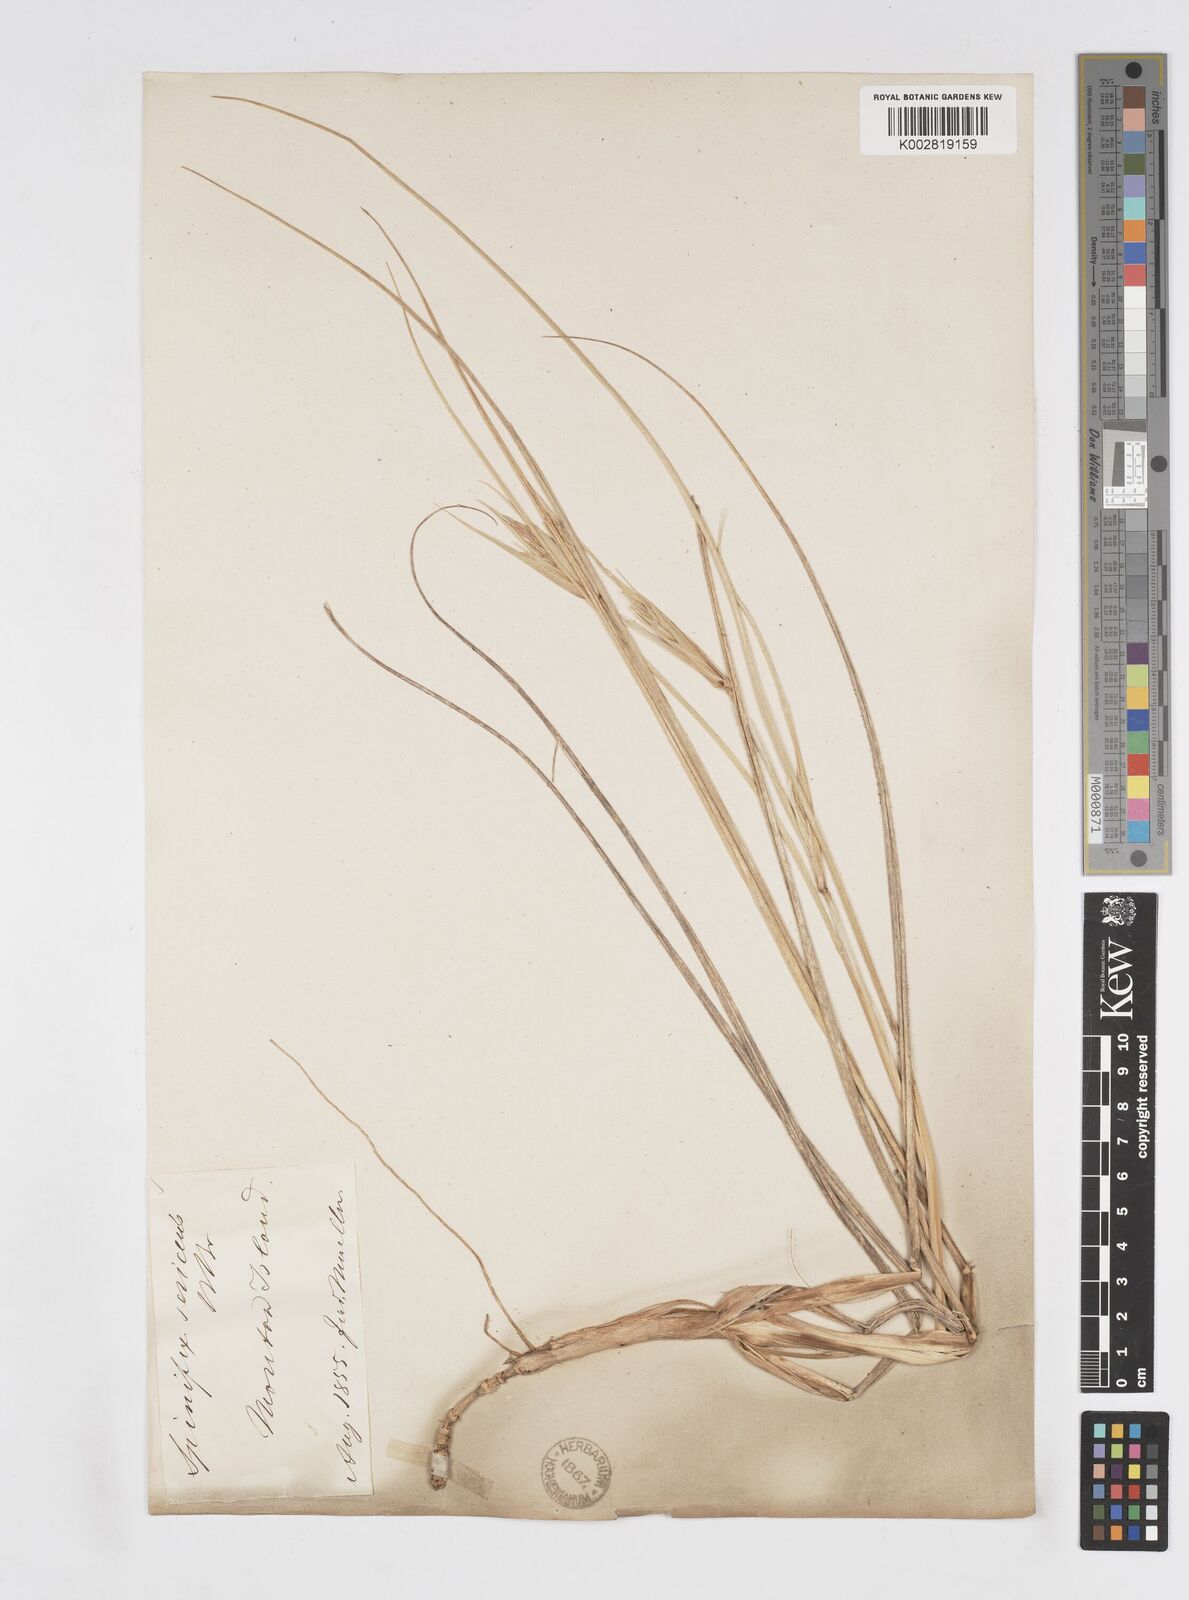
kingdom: Plantae
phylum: Tracheophyta
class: Liliopsida
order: Poales
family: Poaceae
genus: Spinifex
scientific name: Spinifex hirsutus
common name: Hairy spinifex
